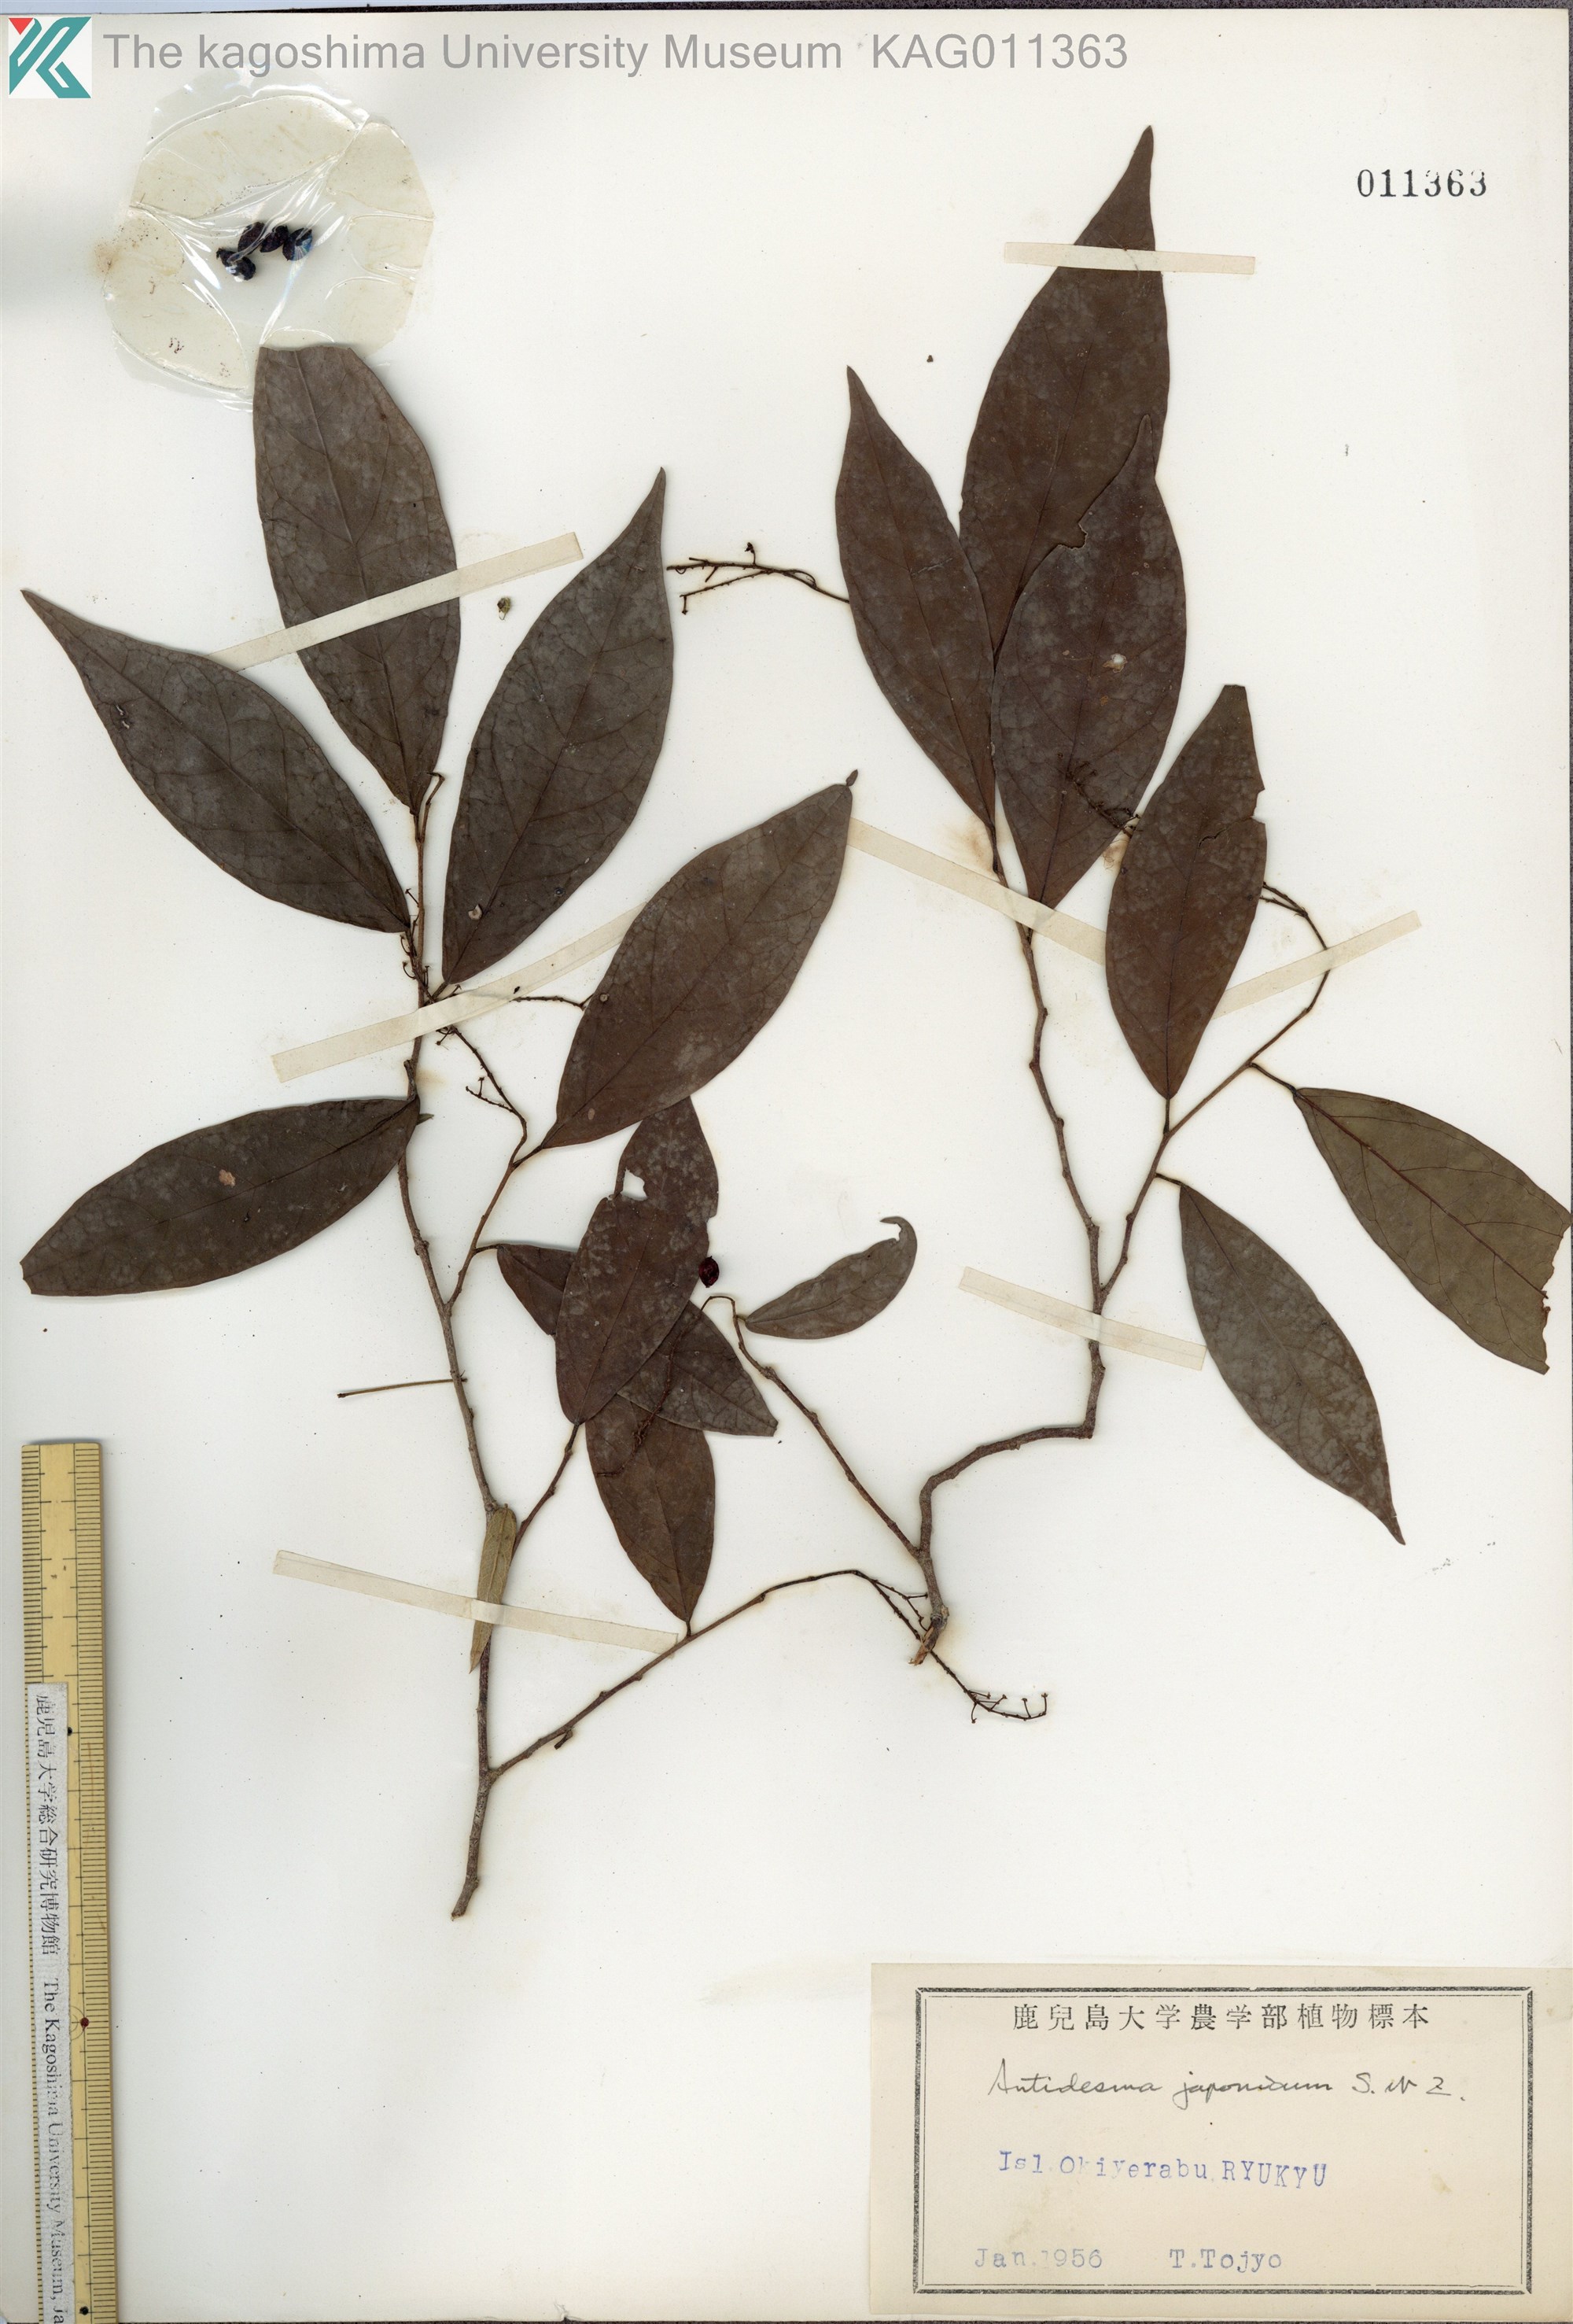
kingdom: Plantae
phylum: Tracheophyta
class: Magnoliopsida
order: Malpighiales
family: Phyllanthaceae
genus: Antidesma
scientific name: Antidesma japonicum
